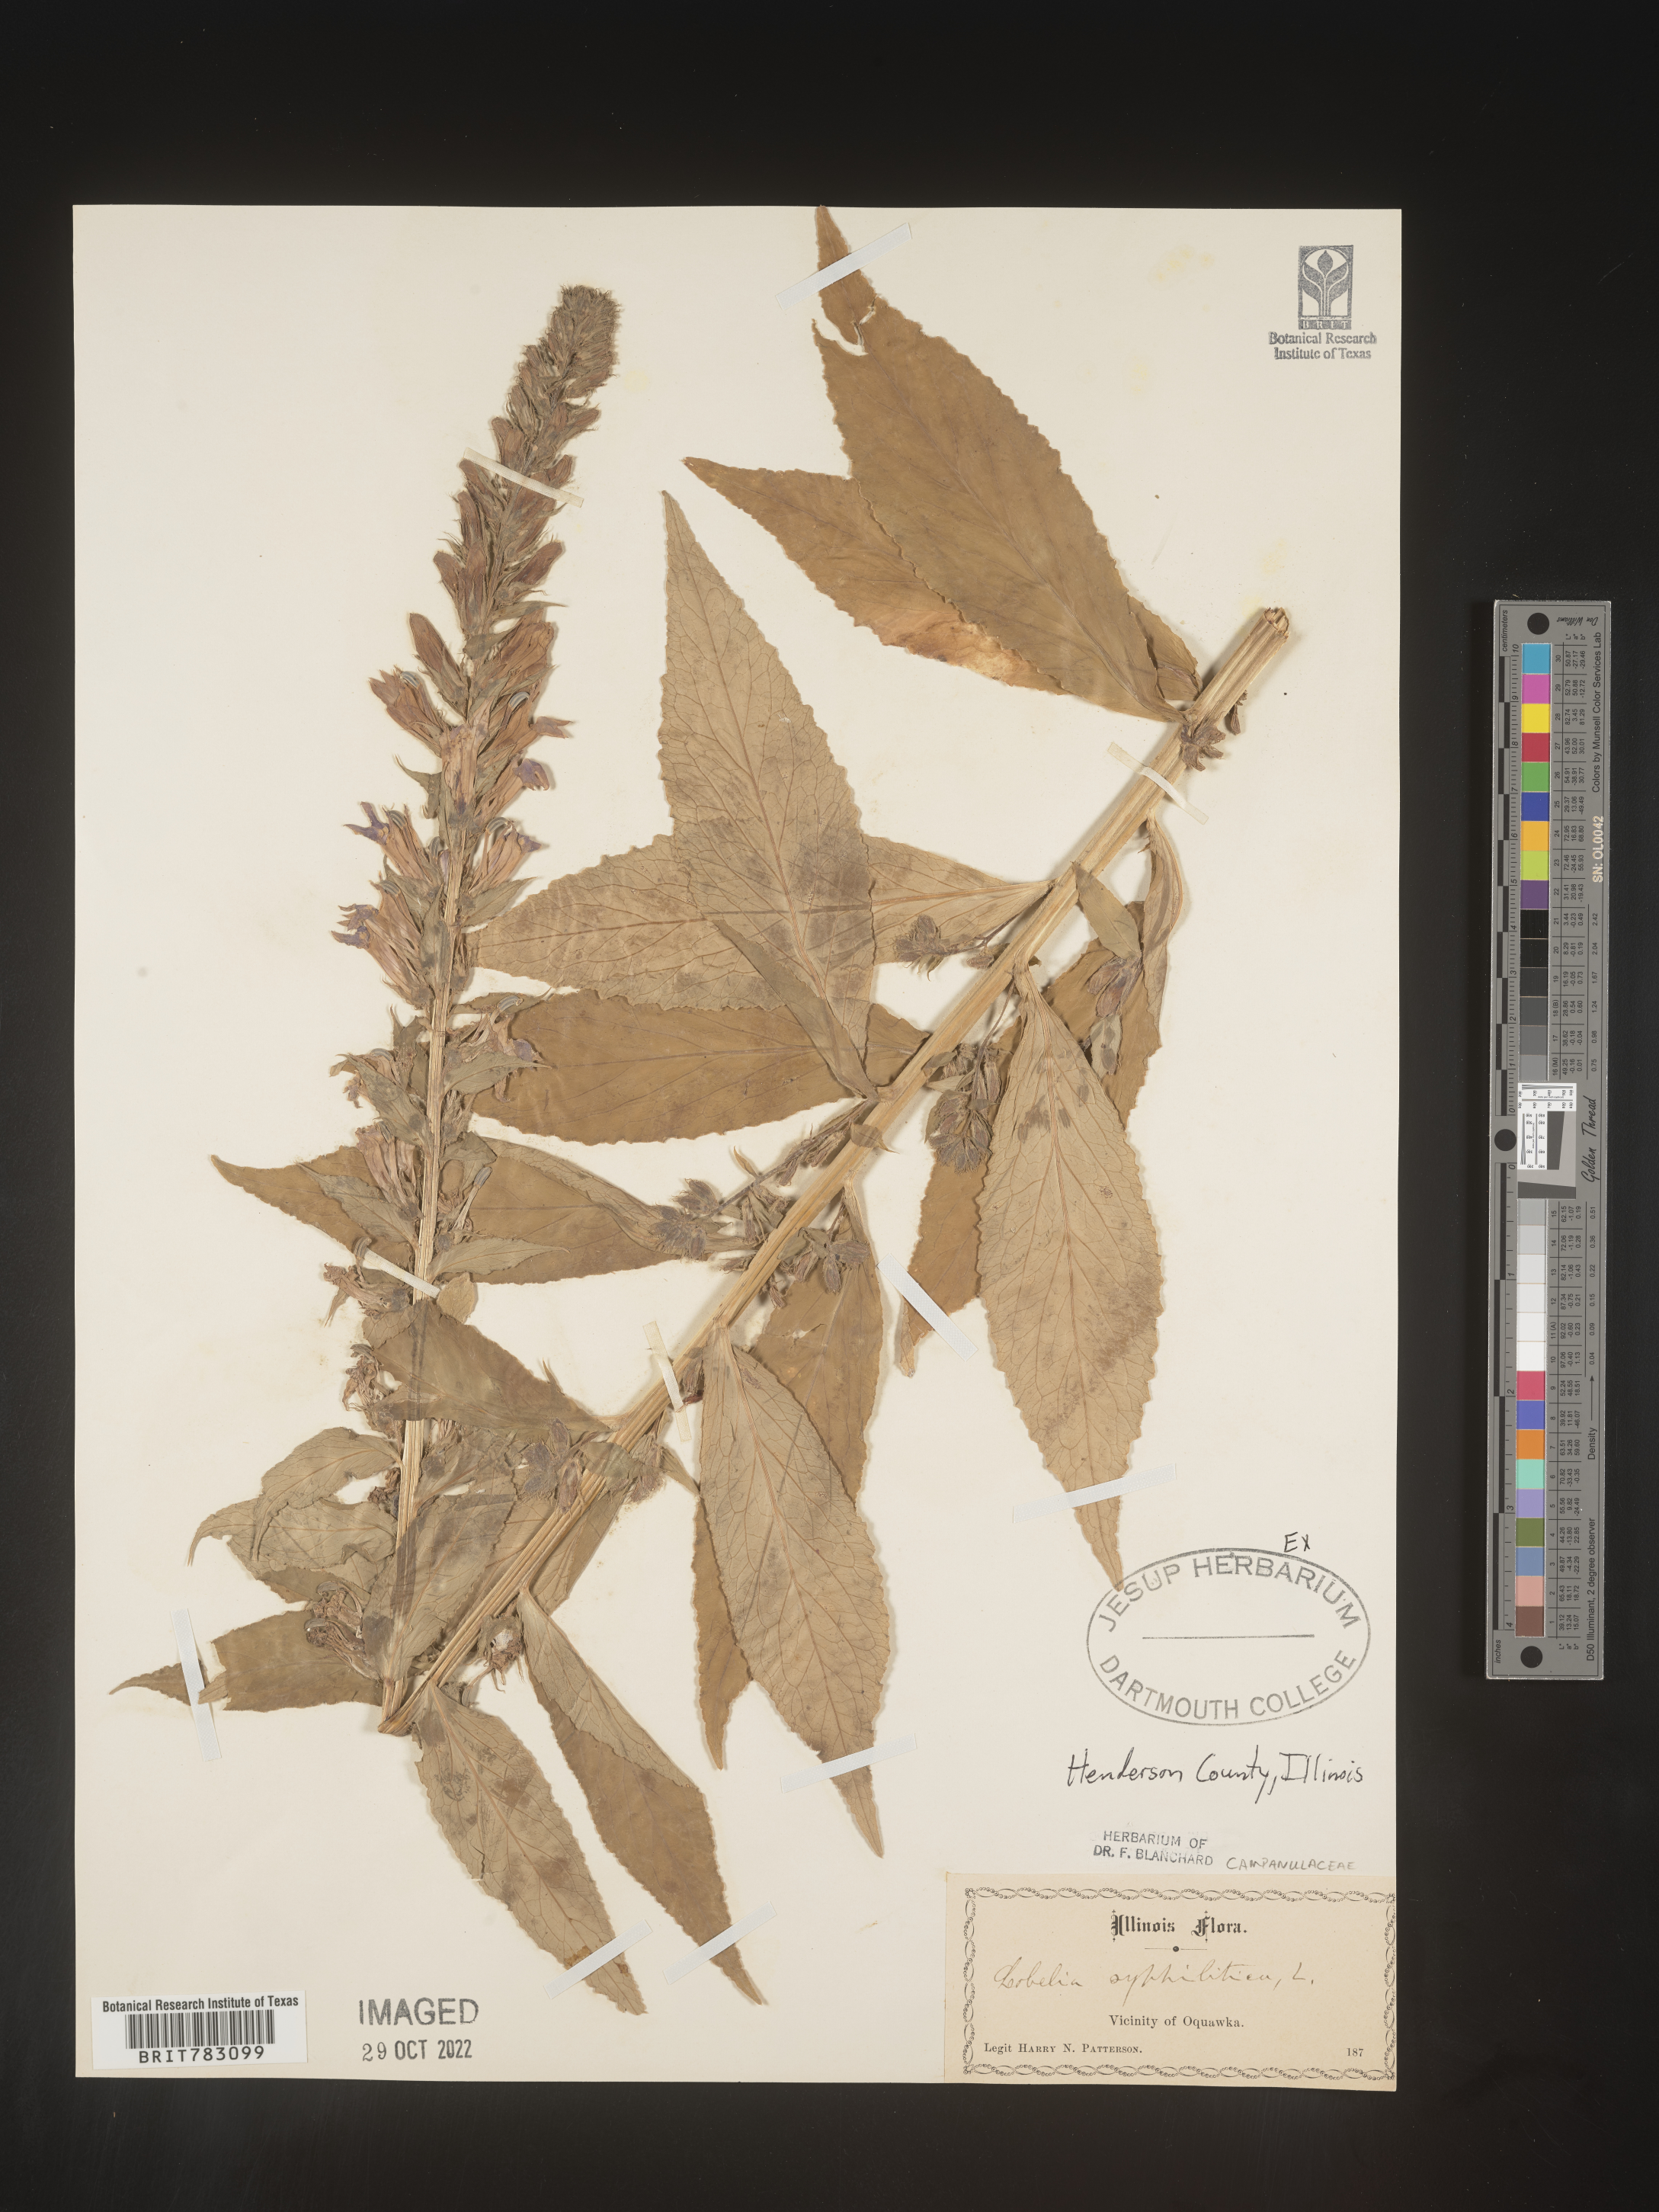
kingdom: Plantae
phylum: Tracheophyta
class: Magnoliopsida
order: Asterales
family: Campanulaceae
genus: Lobelia
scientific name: Lobelia siphilitica
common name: Great lobelia
